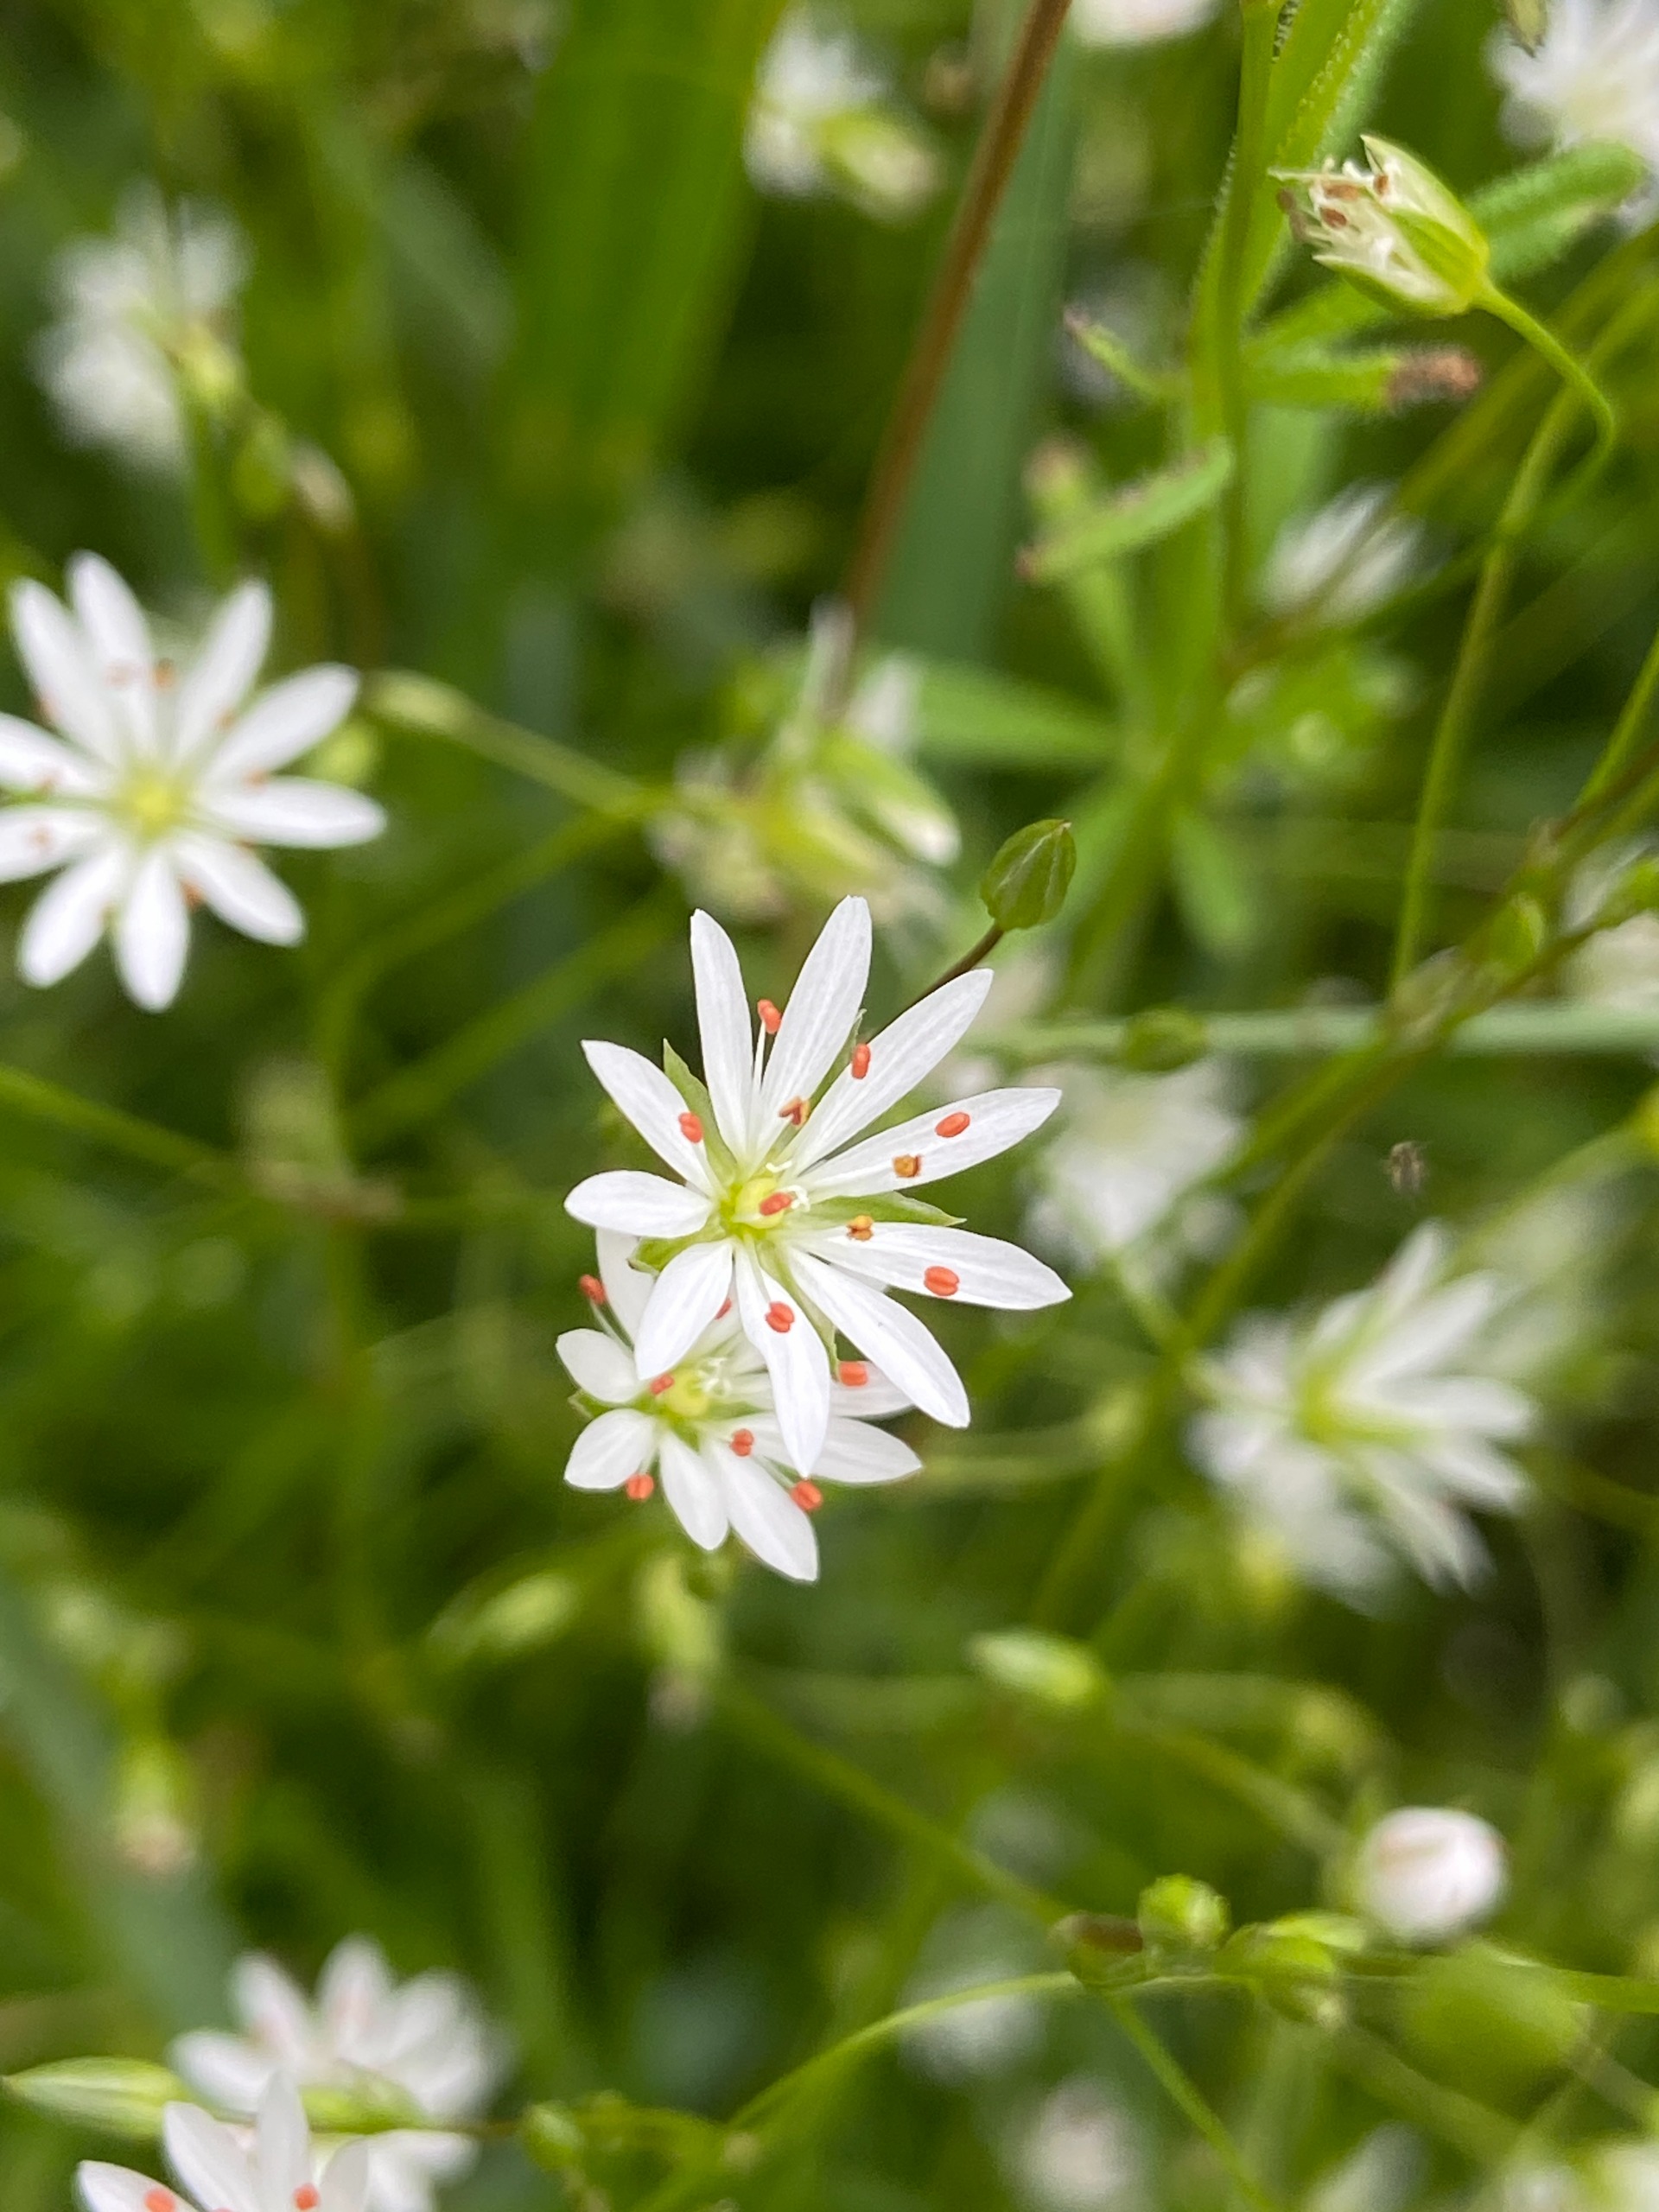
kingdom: Plantae
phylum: Tracheophyta
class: Magnoliopsida
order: Caryophyllales
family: Caryophyllaceae
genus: Stellaria
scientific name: Stellaria graminea
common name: Græsbladet fladstjerne
